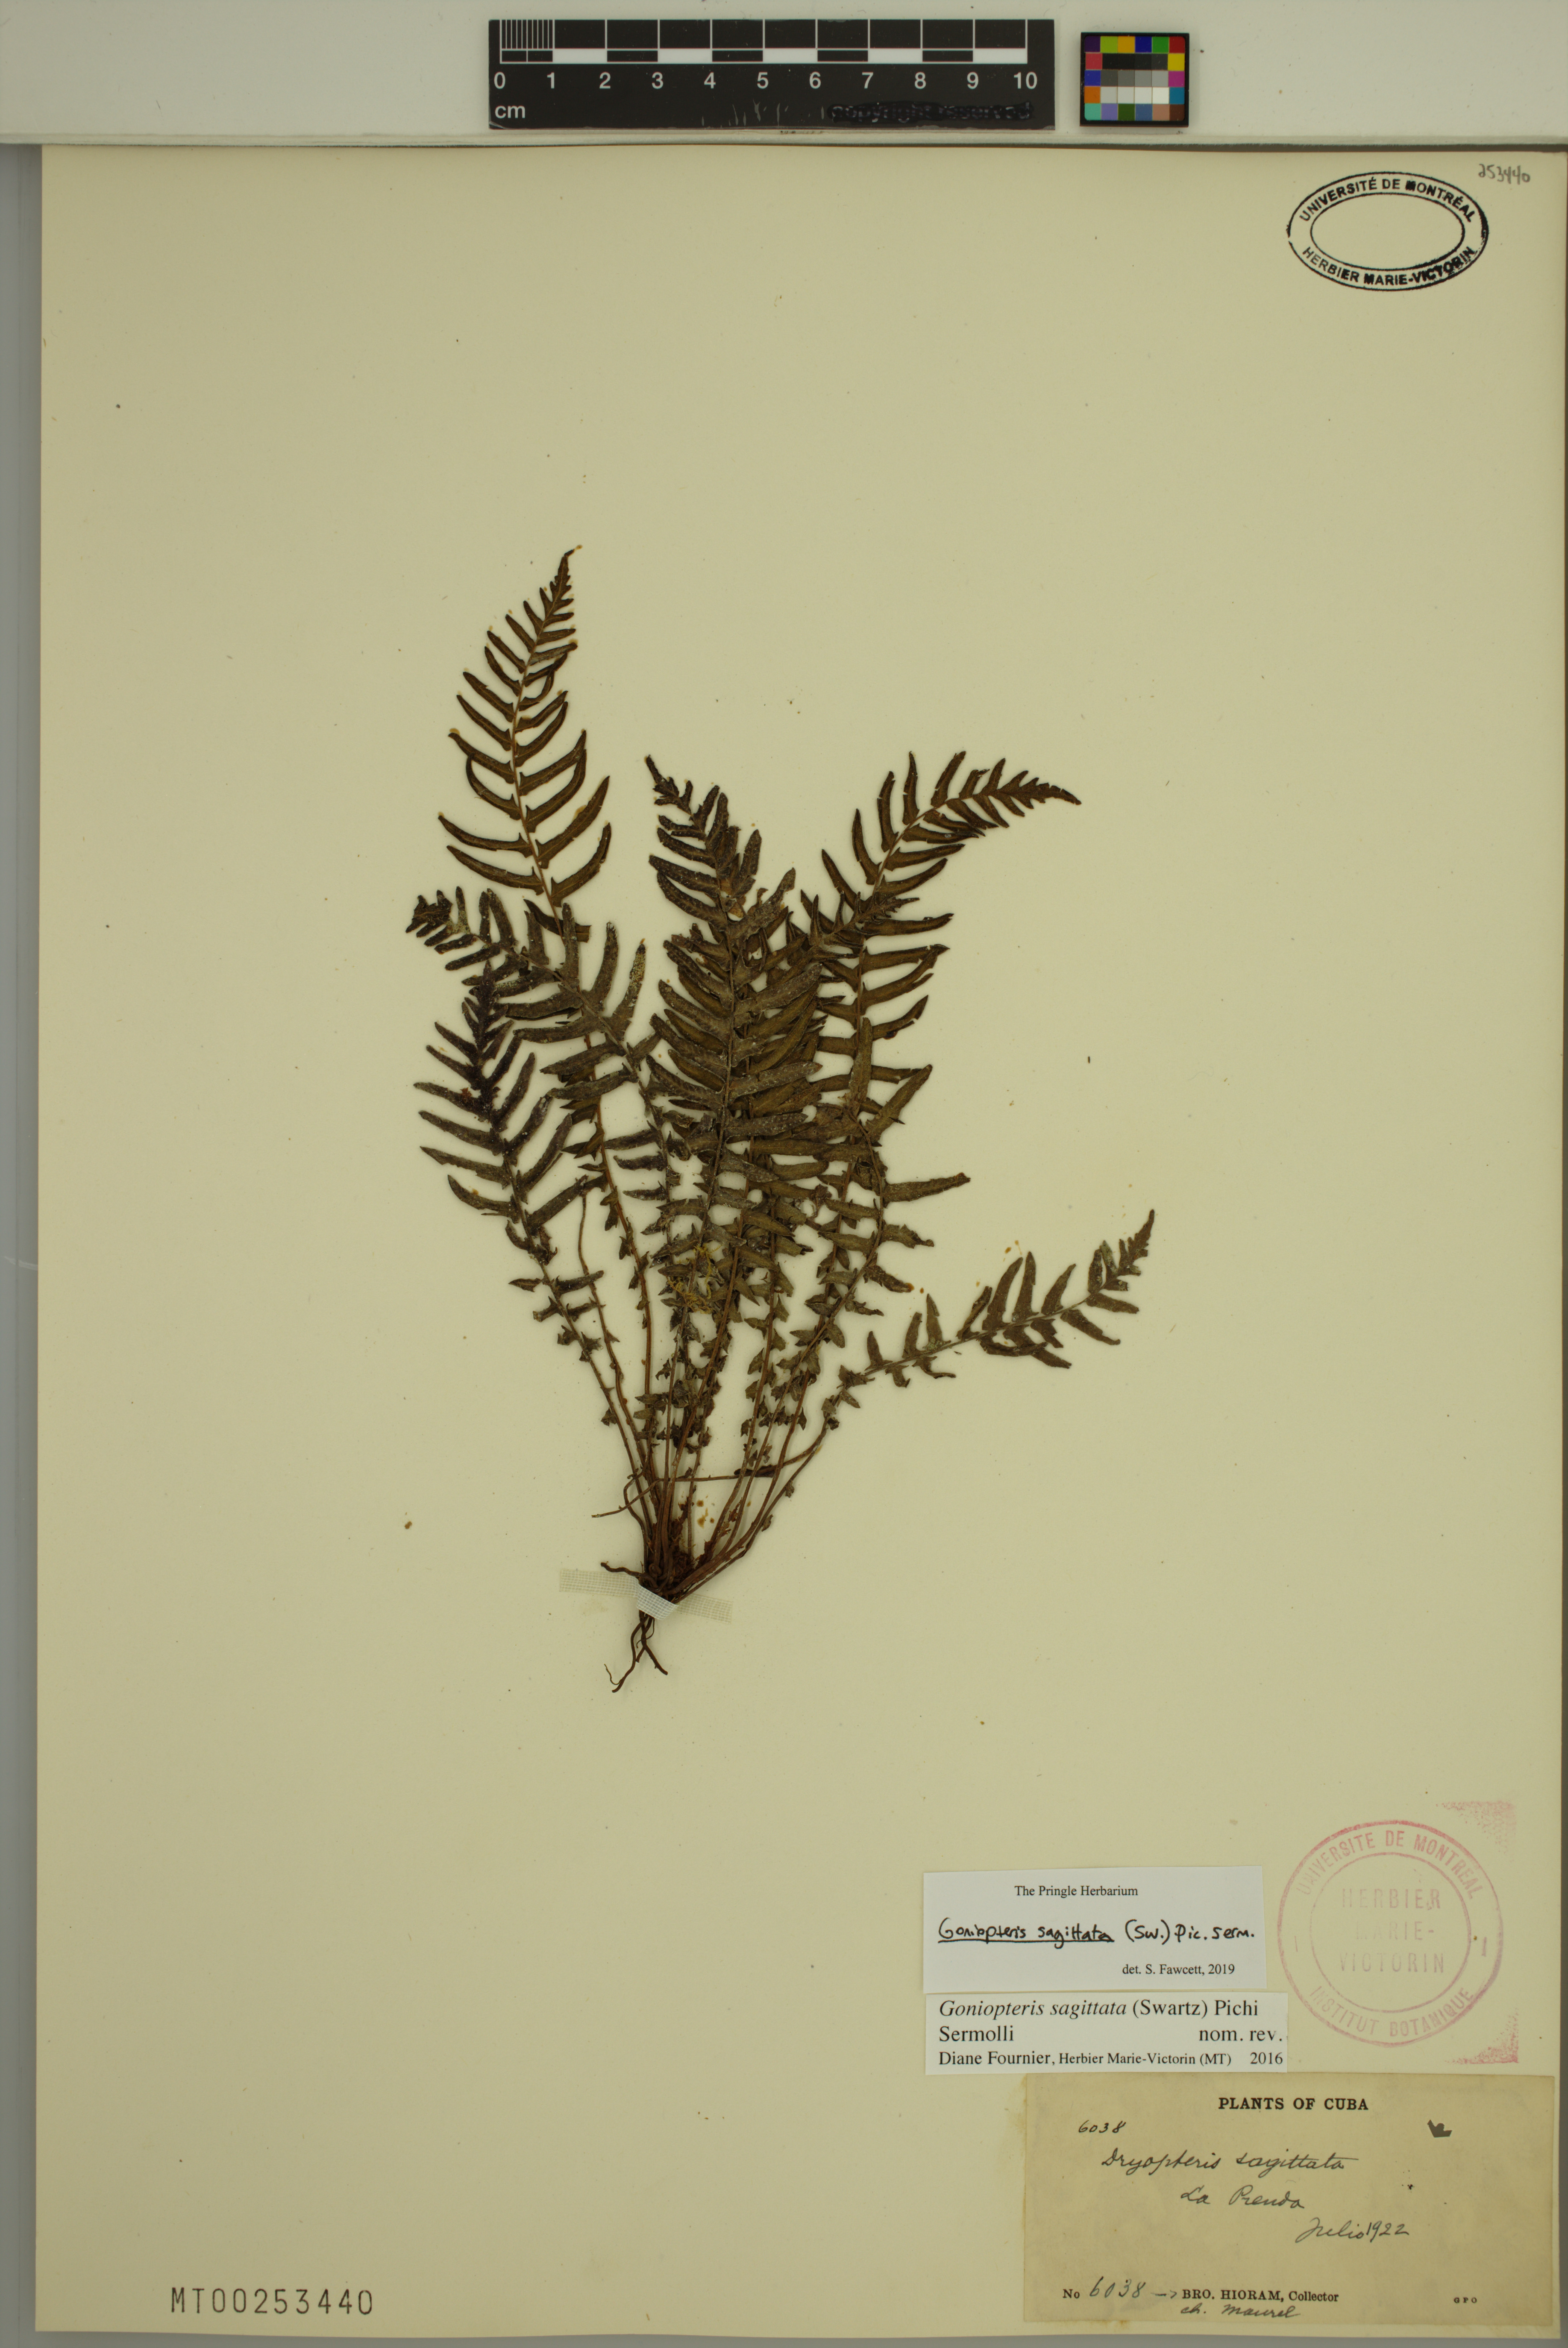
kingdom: Plantae
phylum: Tracheophyta
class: Polypodiopsida
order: Polypodiales
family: Thelypteridaceae
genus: Goniopteris
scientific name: Goniopteris sagittata
